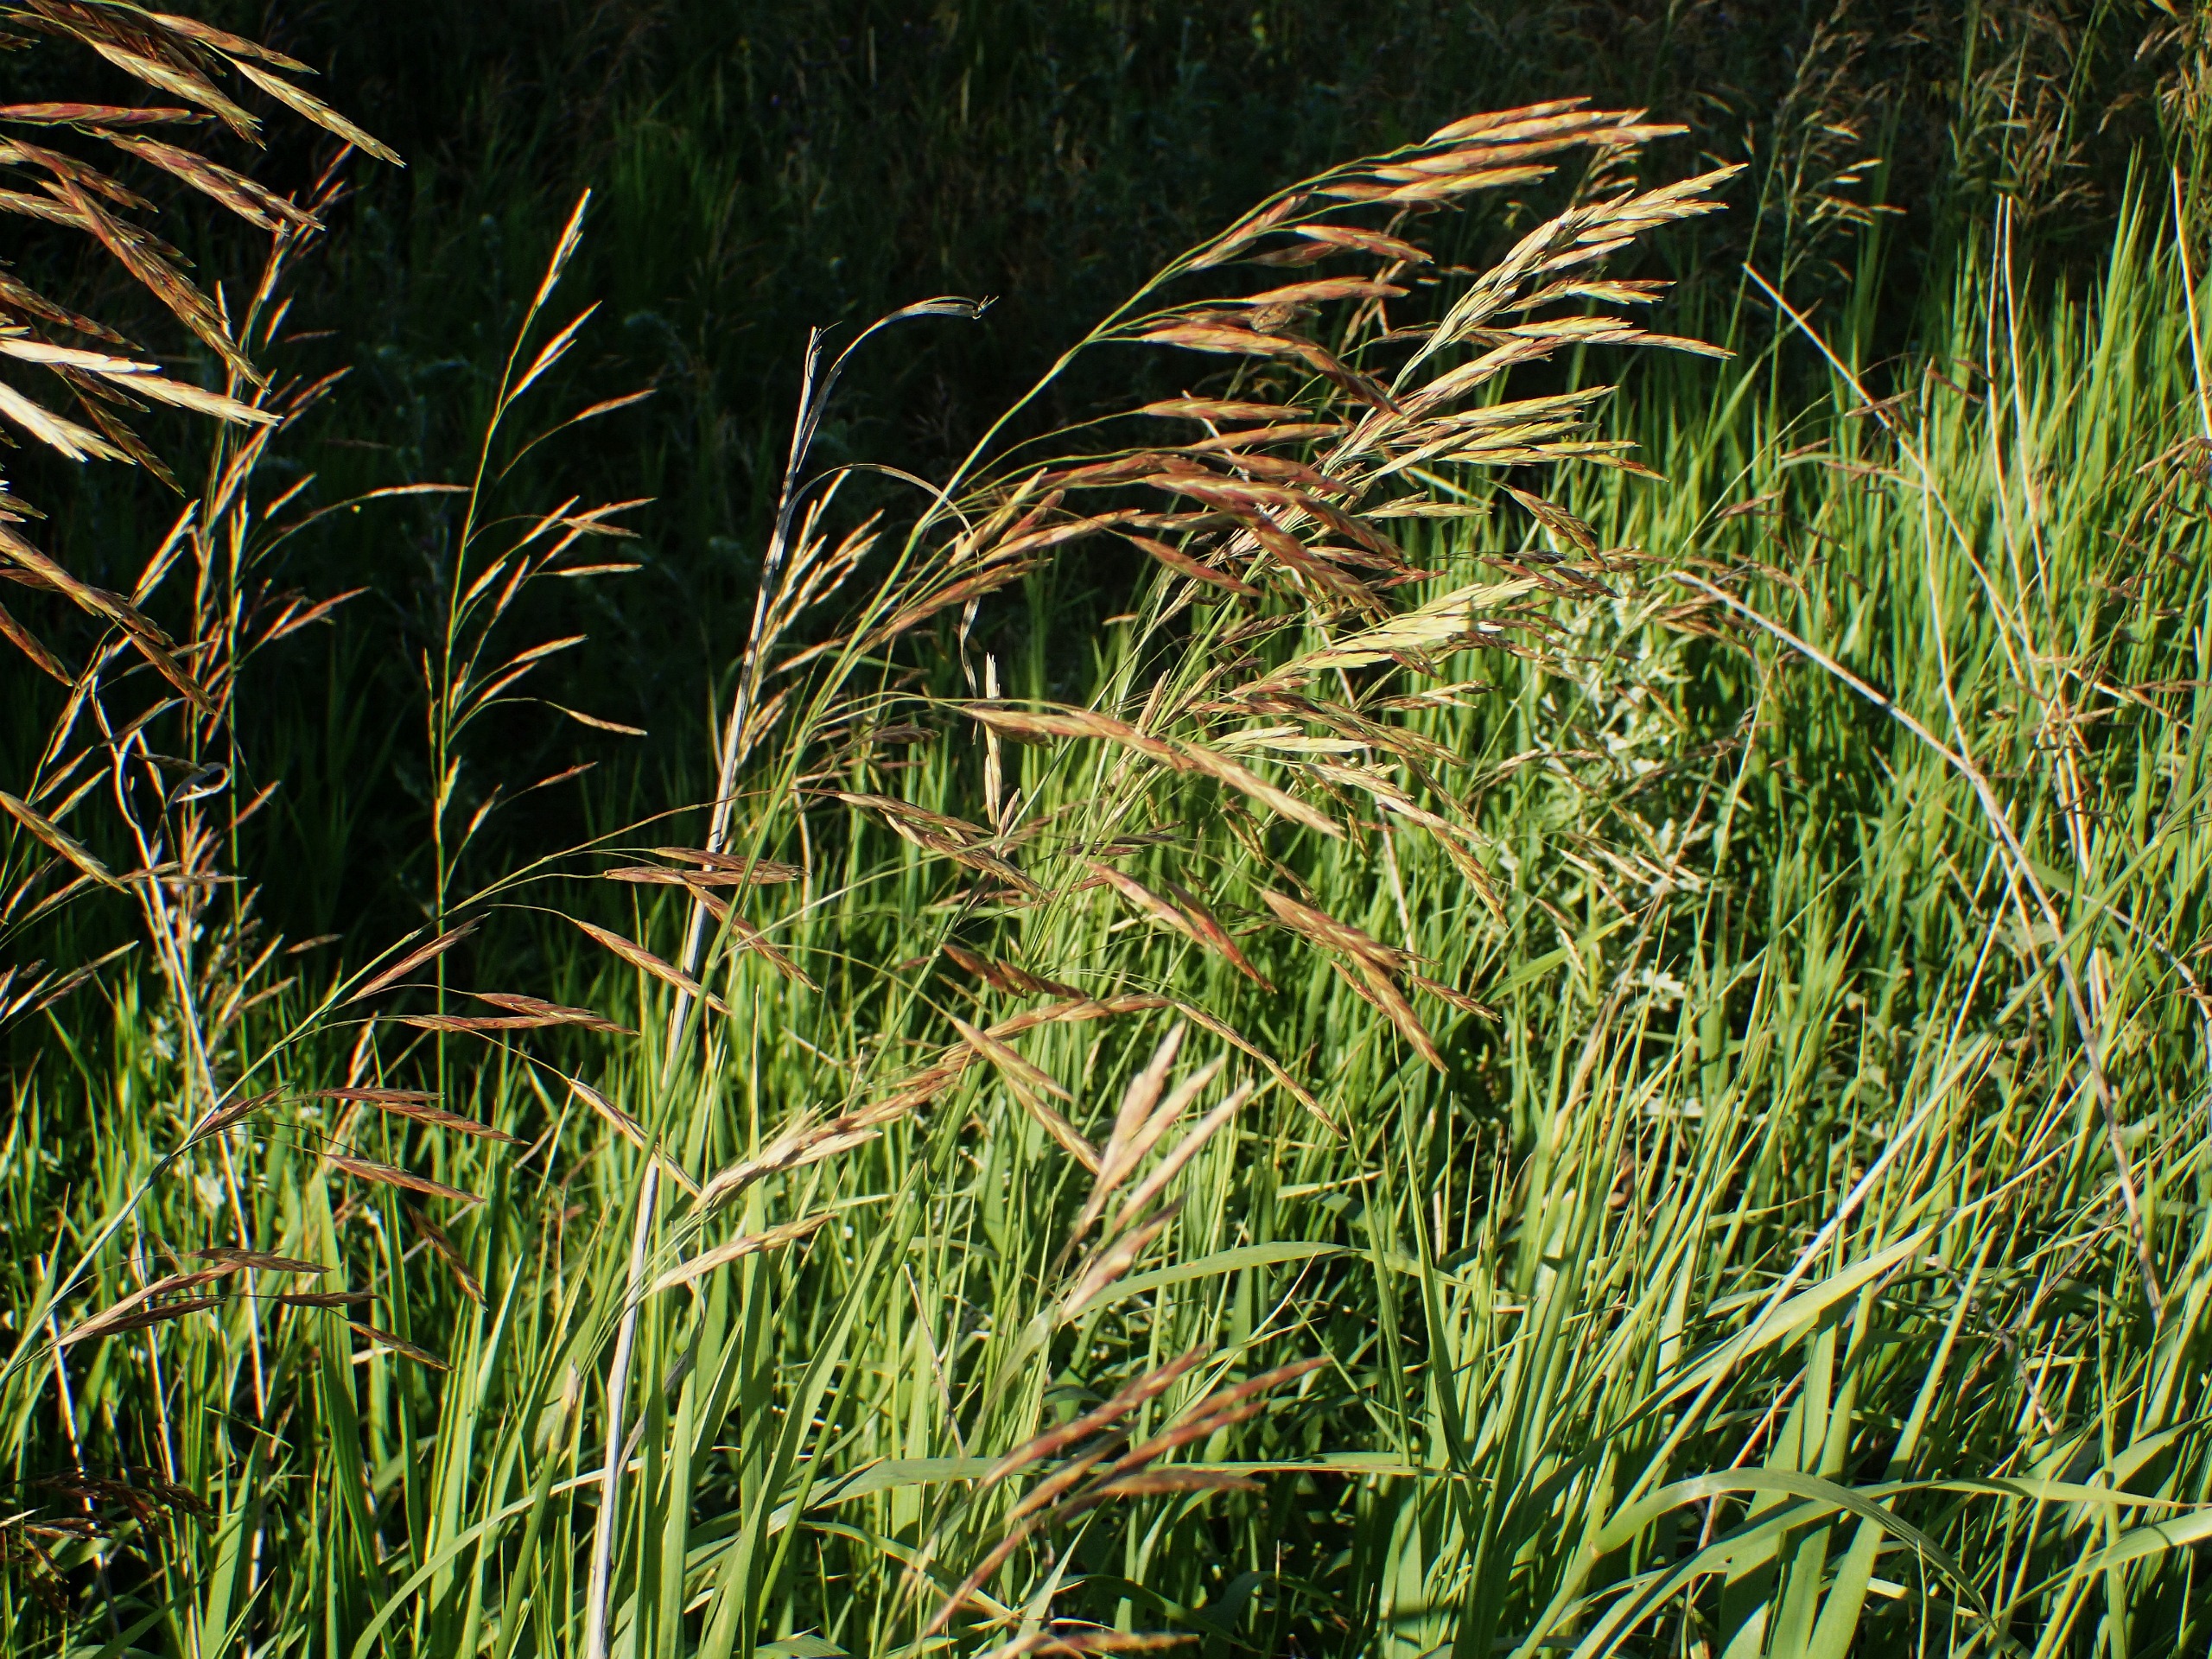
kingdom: Plantae
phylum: Tracheophyta
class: Liliopsida
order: Poales
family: Poaceae
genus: Bromus
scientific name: Bromus inermis
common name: Stakløs hejre
